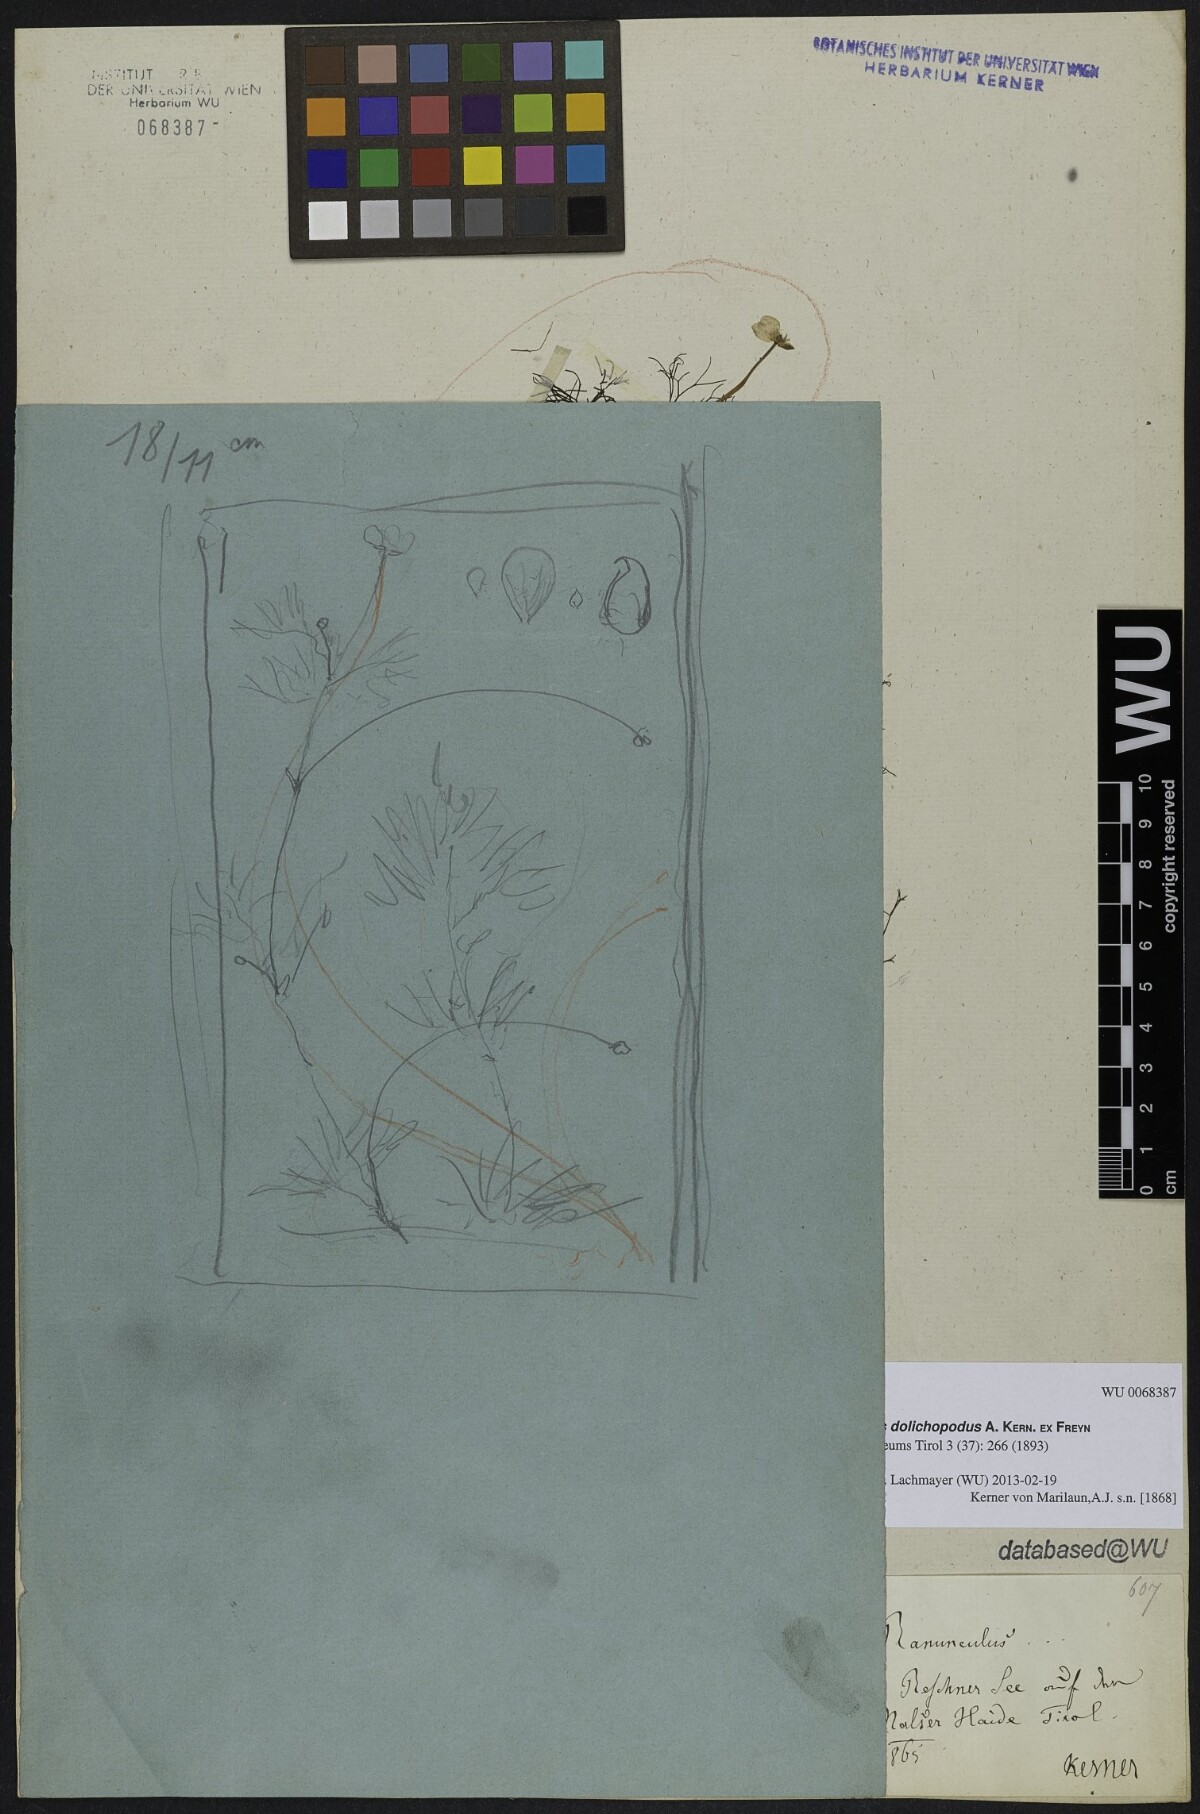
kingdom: Plantae
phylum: Tracheophyta
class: Magnoliopsida
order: Ranunculales
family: Ranunculaceae
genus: Ranunculus
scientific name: Ranunculus trichophyllus
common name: Thread-leaved water-crowfoot
